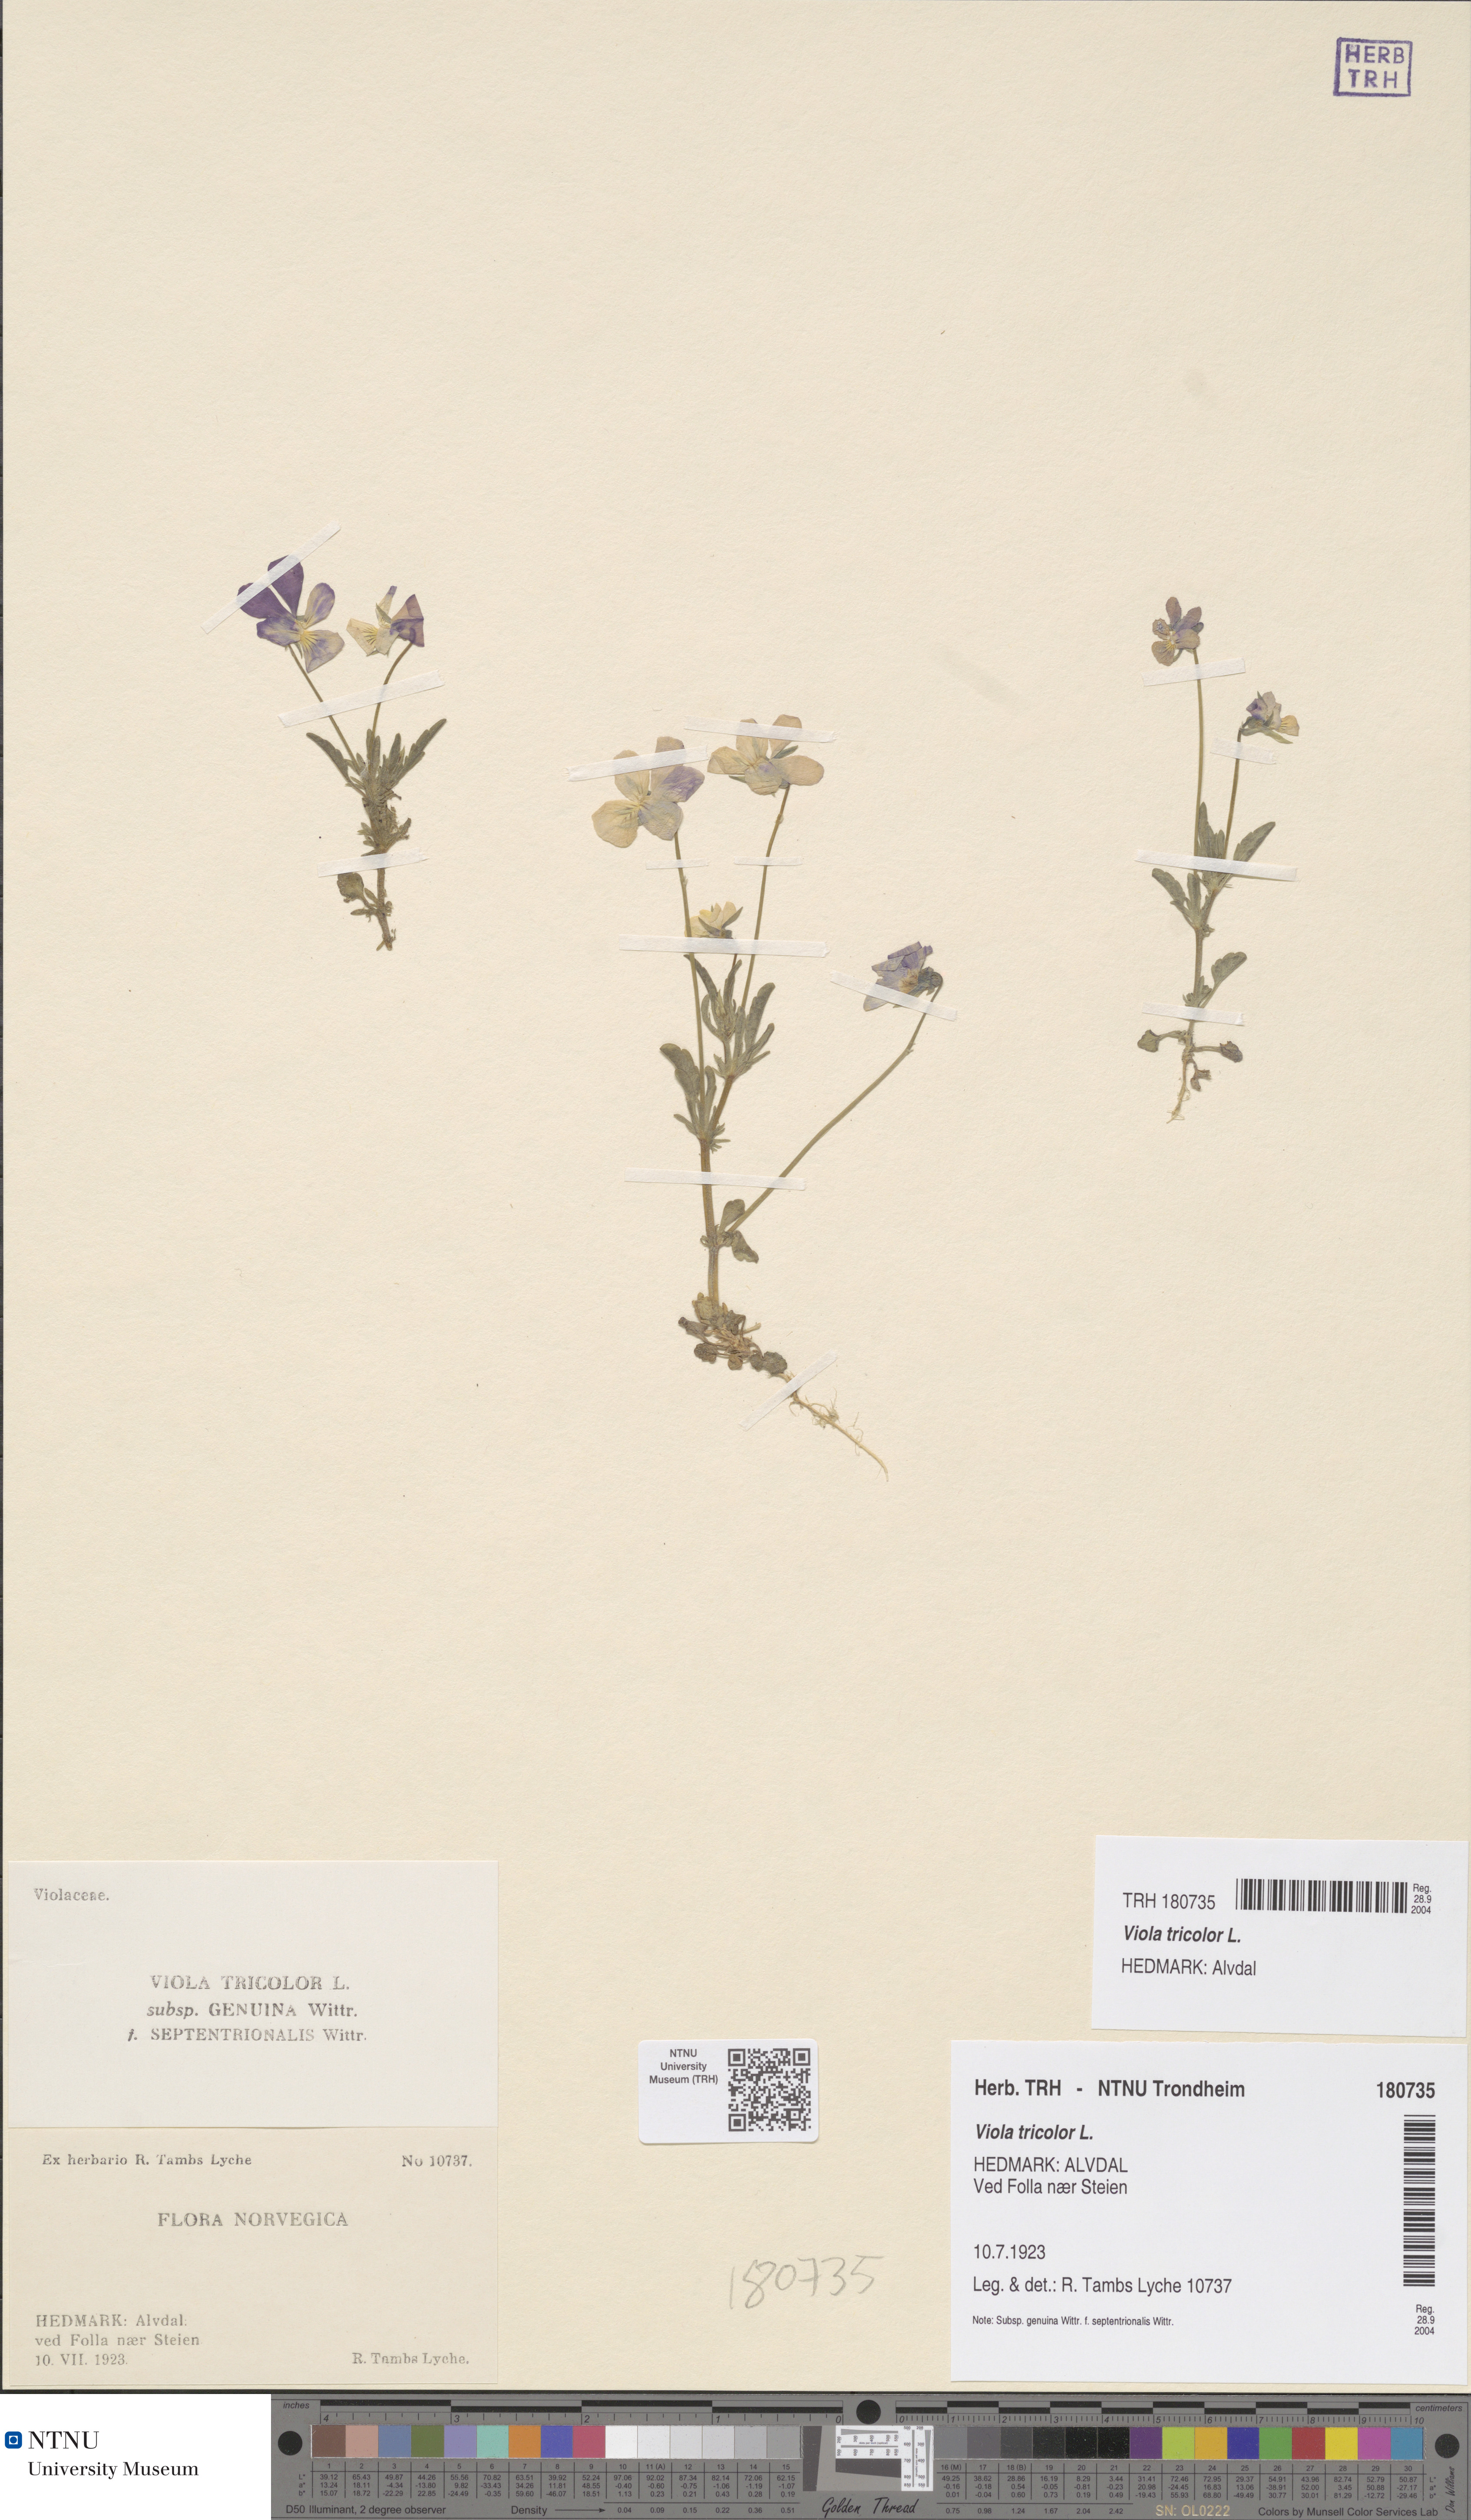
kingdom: Plantae
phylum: Tracheophyta
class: Magnoliopsida
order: Malpighiales
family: Violaceae
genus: Viola
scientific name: Viola tricolor
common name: Pansy
